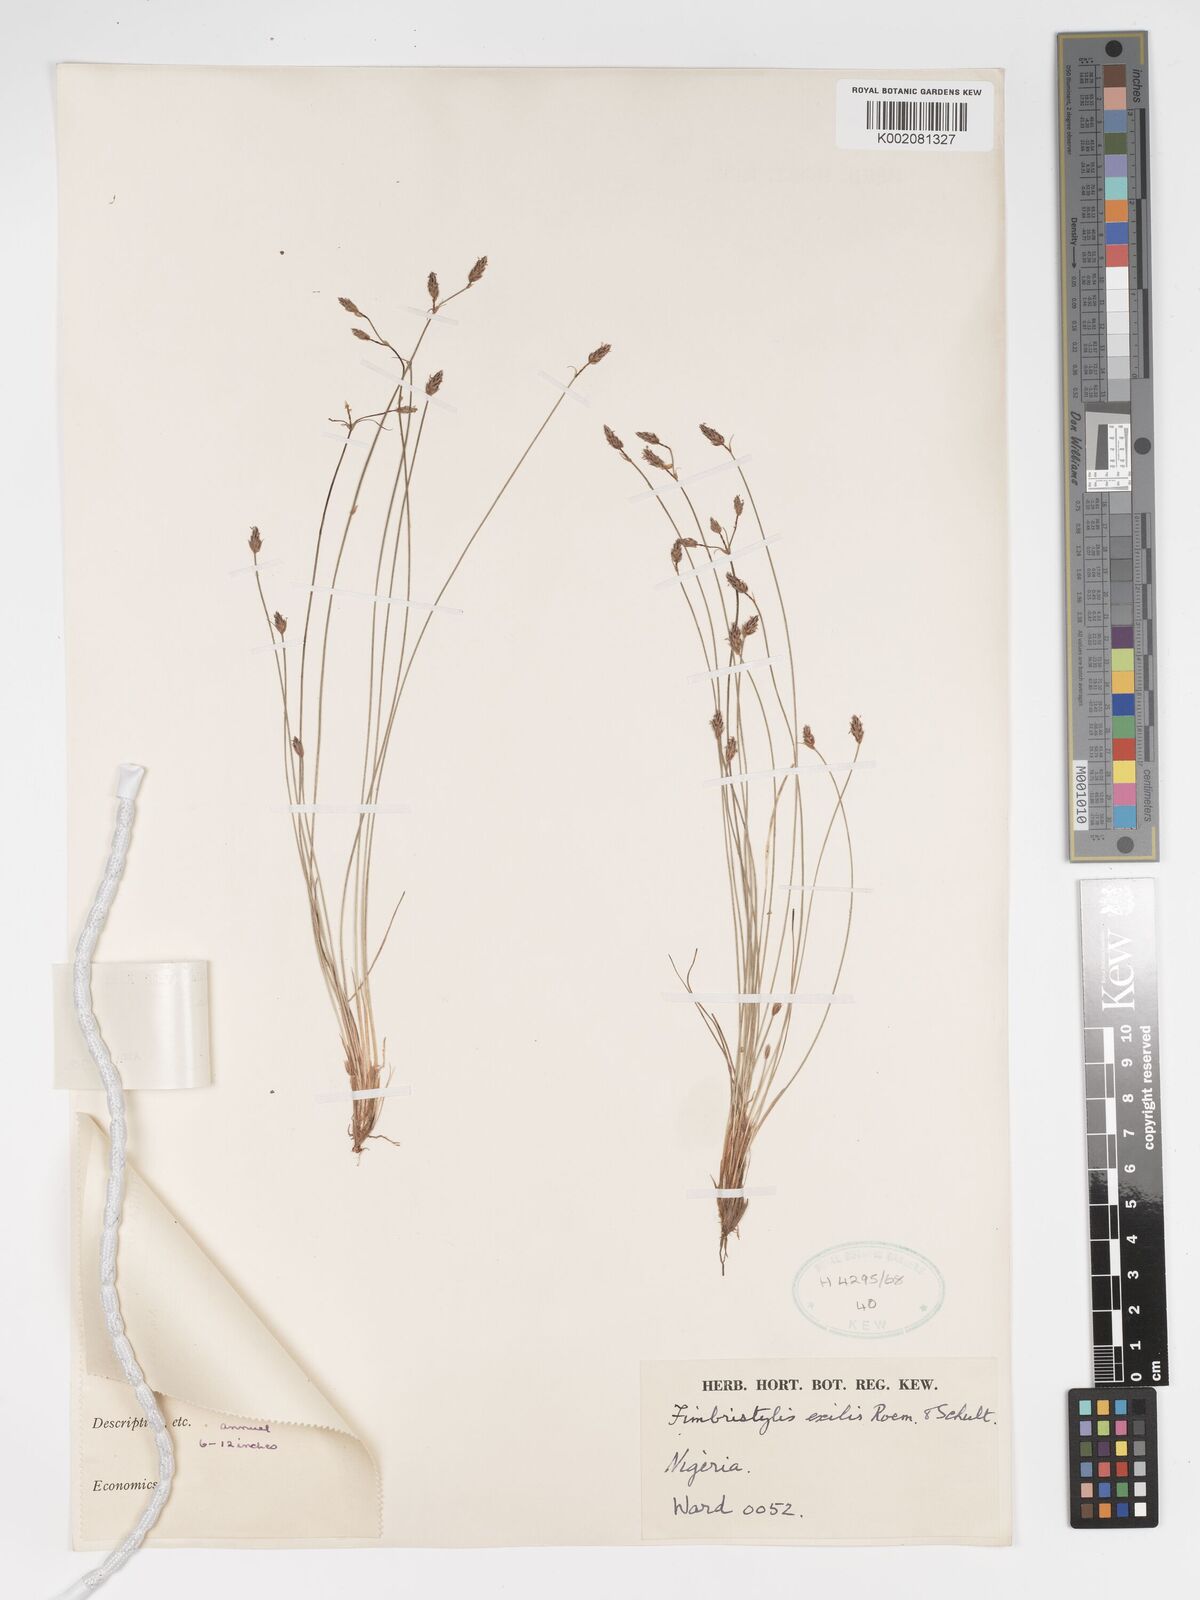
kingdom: Plantae
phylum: Tracheophyta
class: Liliopsida
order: Poales
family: Cyperaceae
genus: Bulbostylis
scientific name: Bulbostylis hispidula
